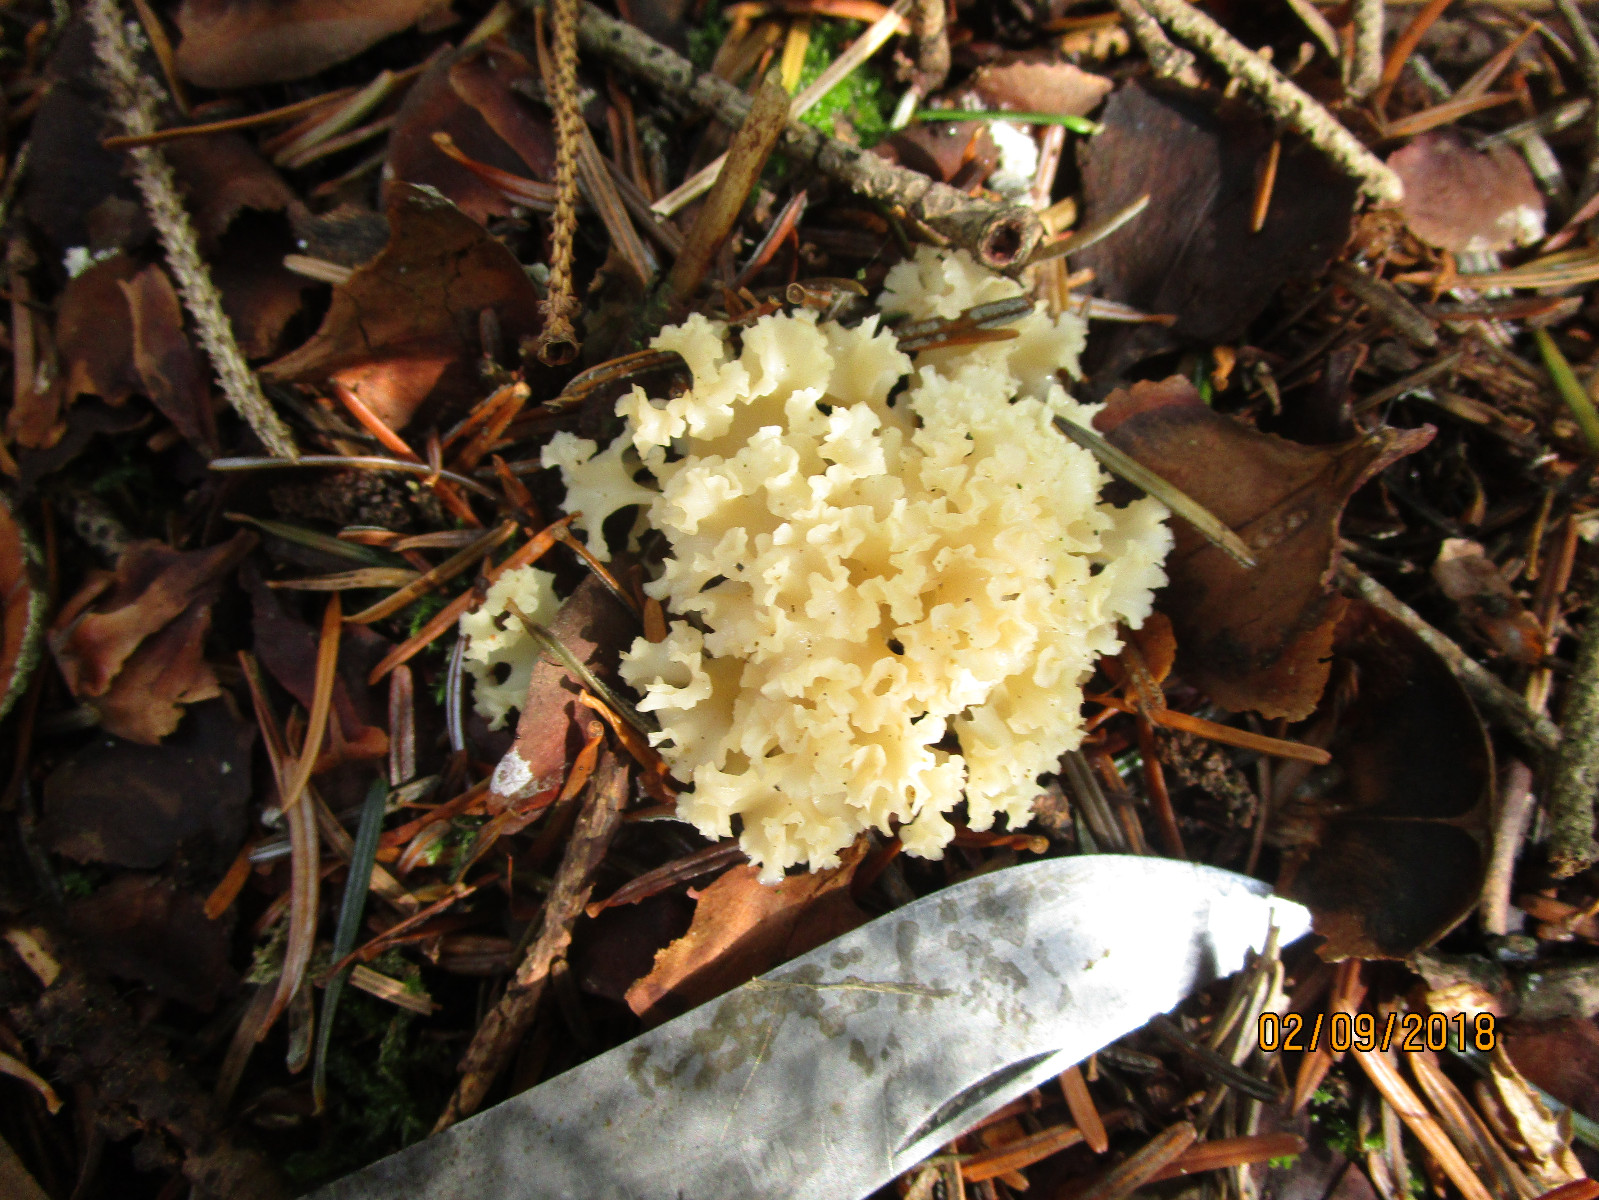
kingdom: Fungi
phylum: Basidiomycota
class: Agaricomycetes
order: Polyporales
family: Sparassidaceae
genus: Sparassis
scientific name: Sparassis crispa
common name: kruset blomkålssvamp
